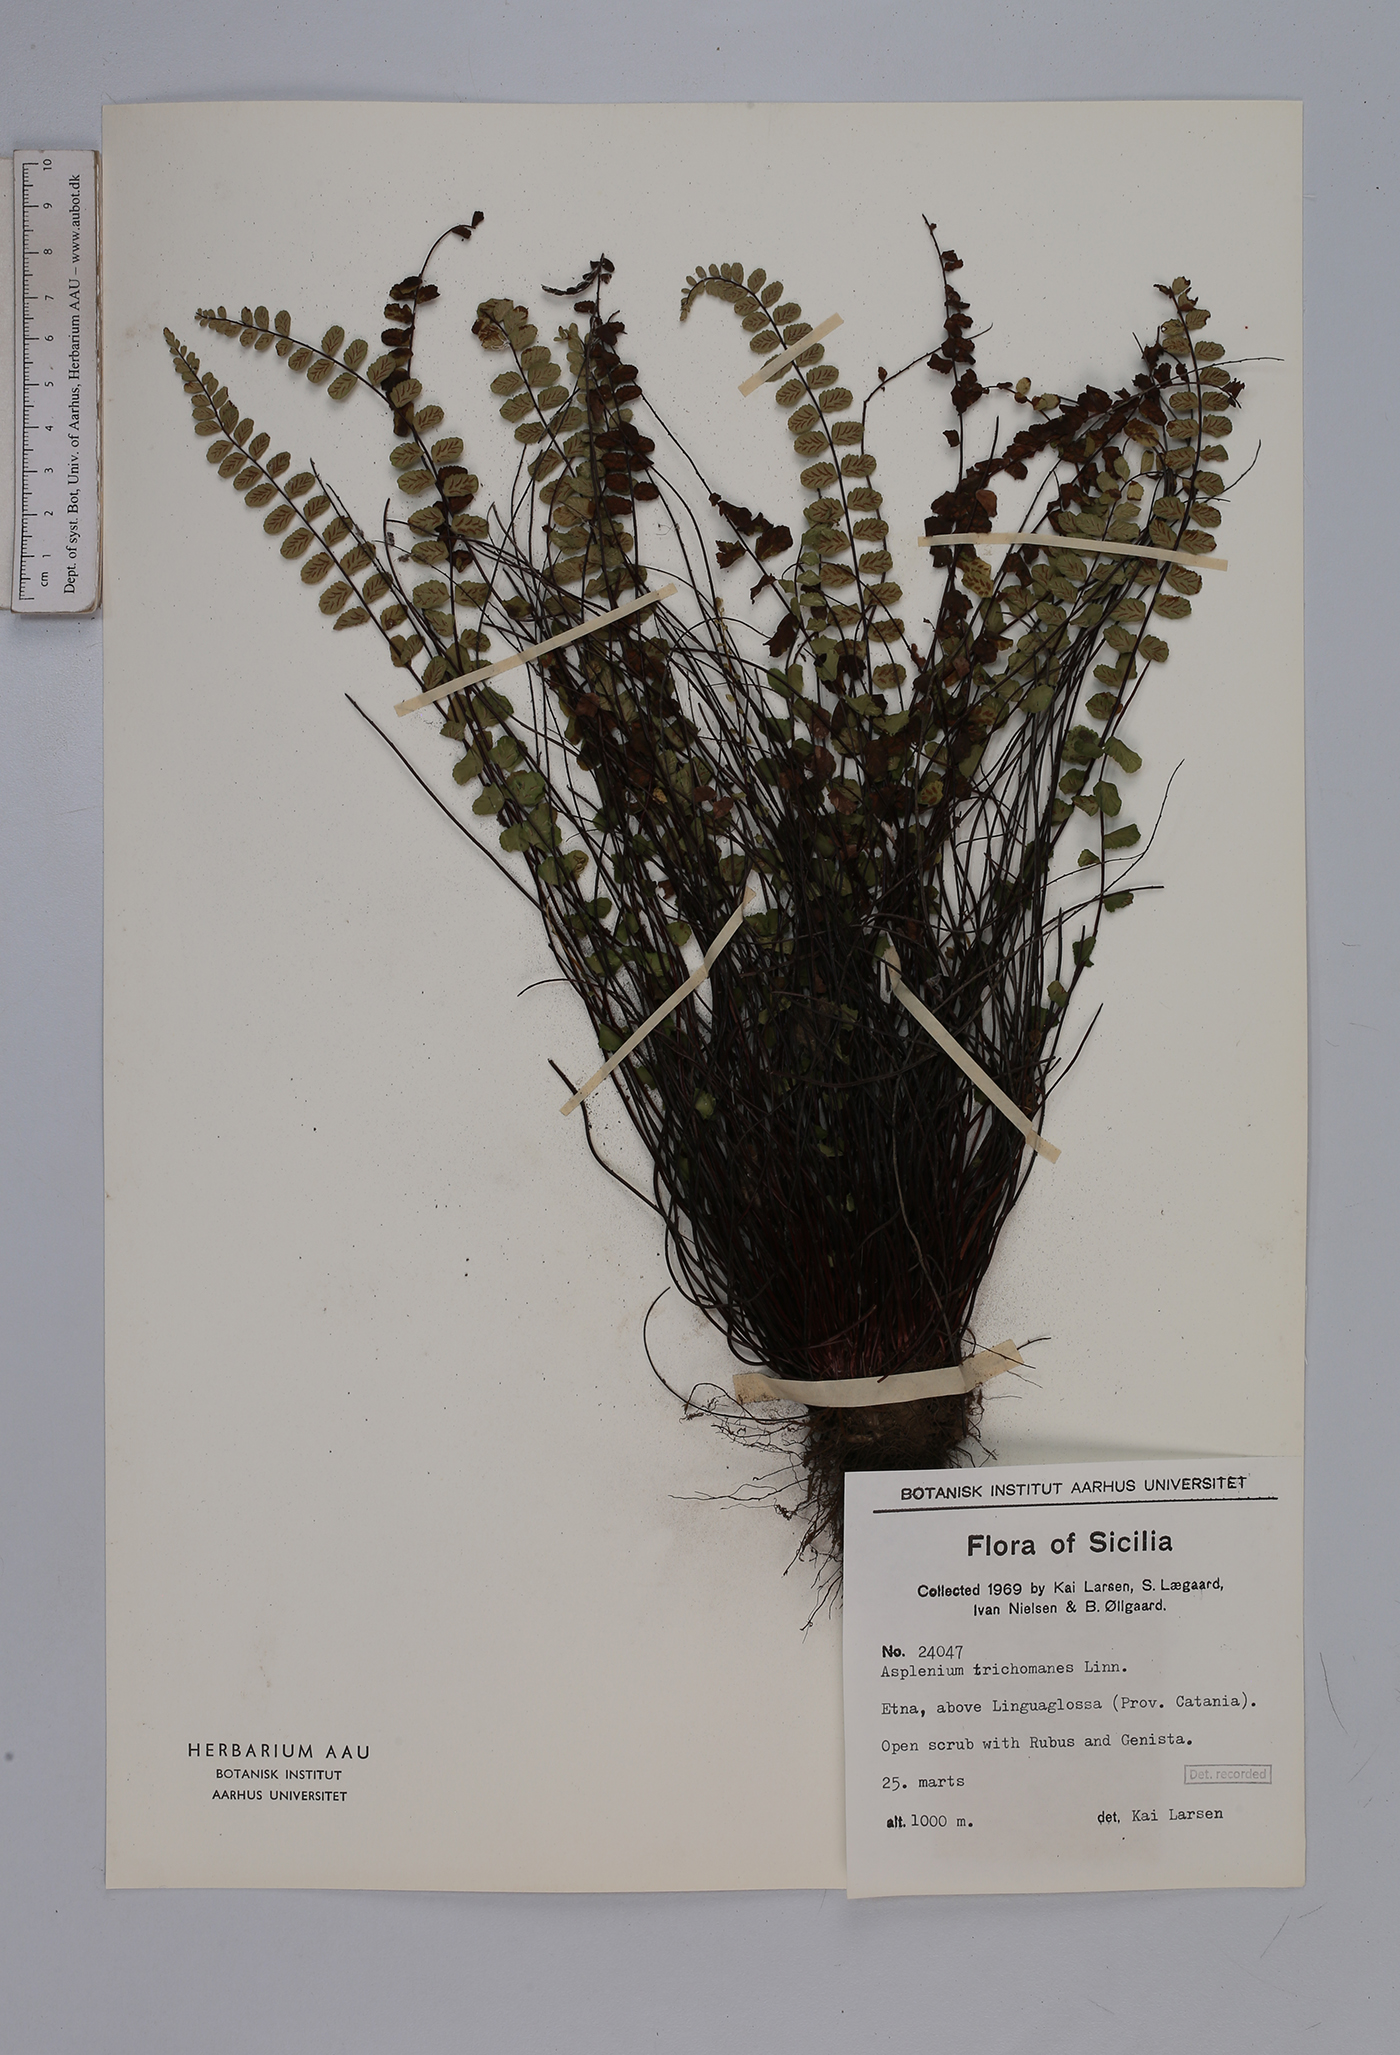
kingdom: Plantae
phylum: Tracheophyta
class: Polypodiopsida
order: Polypodiales
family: Aspleniaceae
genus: Asplenium
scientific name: Asplenium trichomanes
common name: Maidenhair spleenwort
